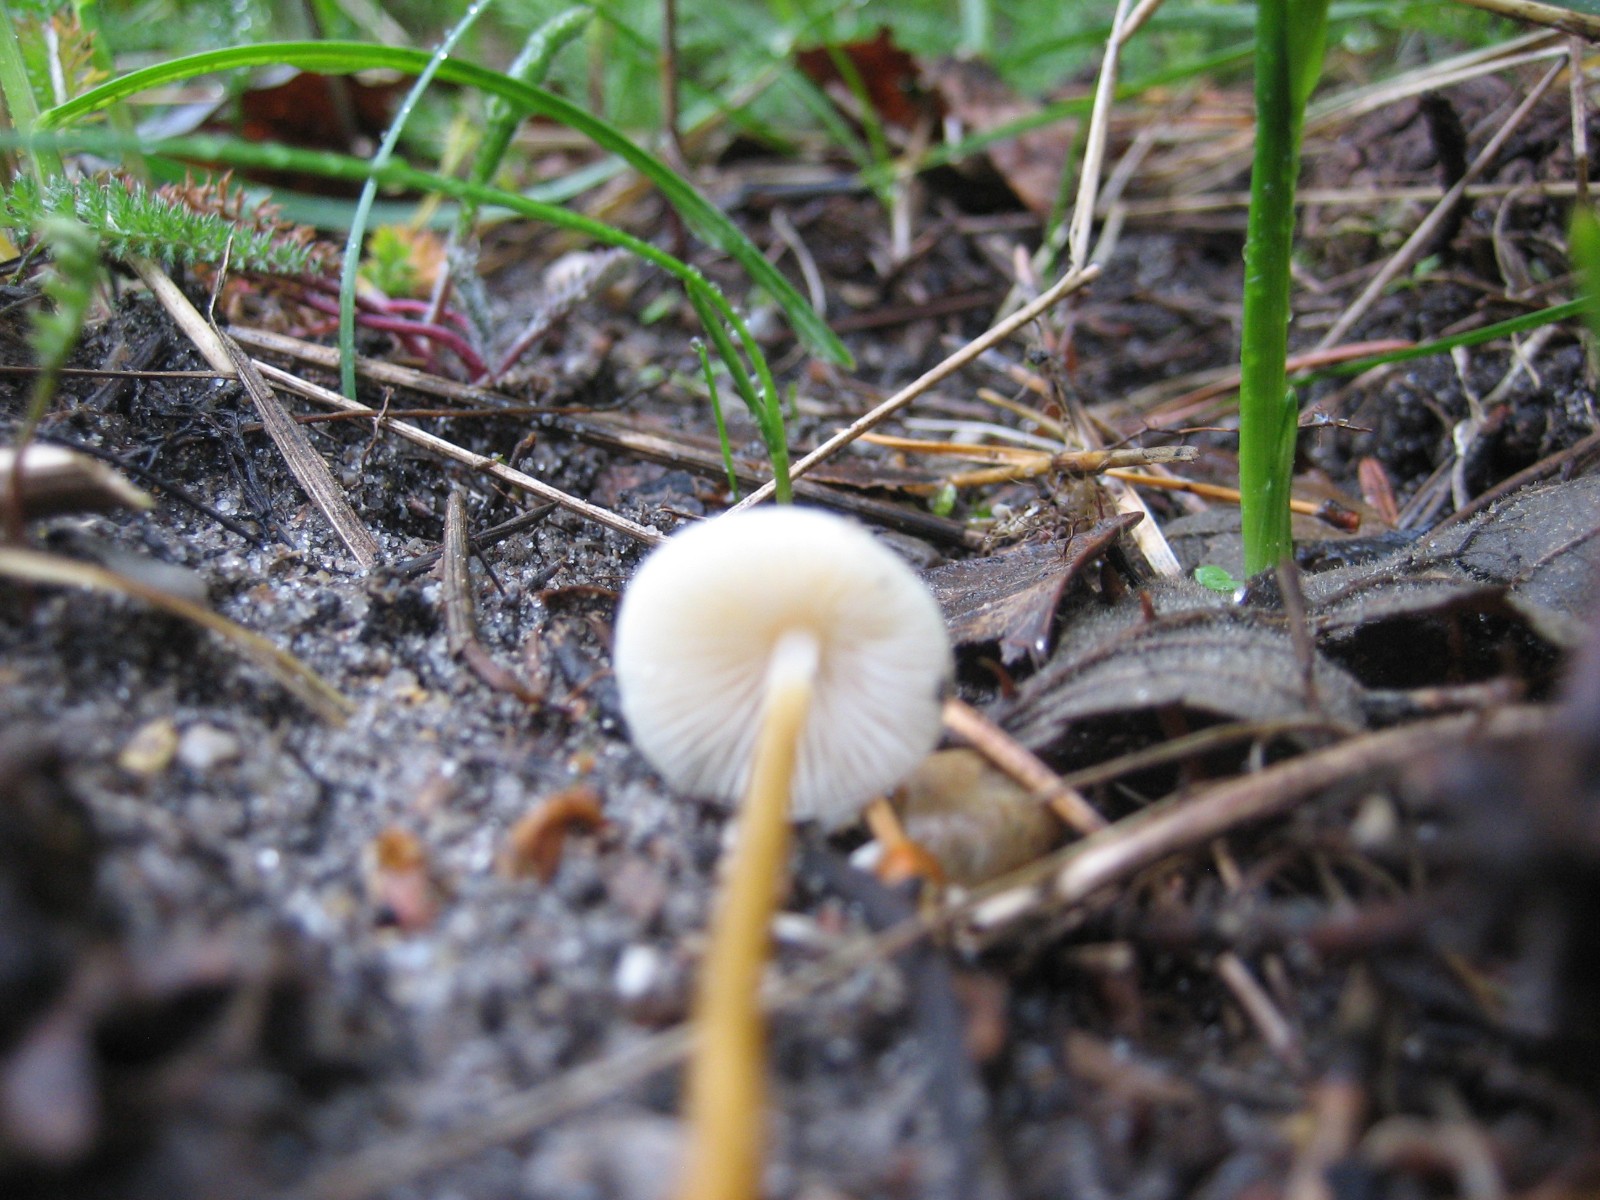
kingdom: Fungi
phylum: Basidiomycota
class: Agaricomycetes
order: Agaricales
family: Physalacriaceae
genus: Strobilurus
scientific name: Strobilurus esculentus
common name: gran-koglehat
